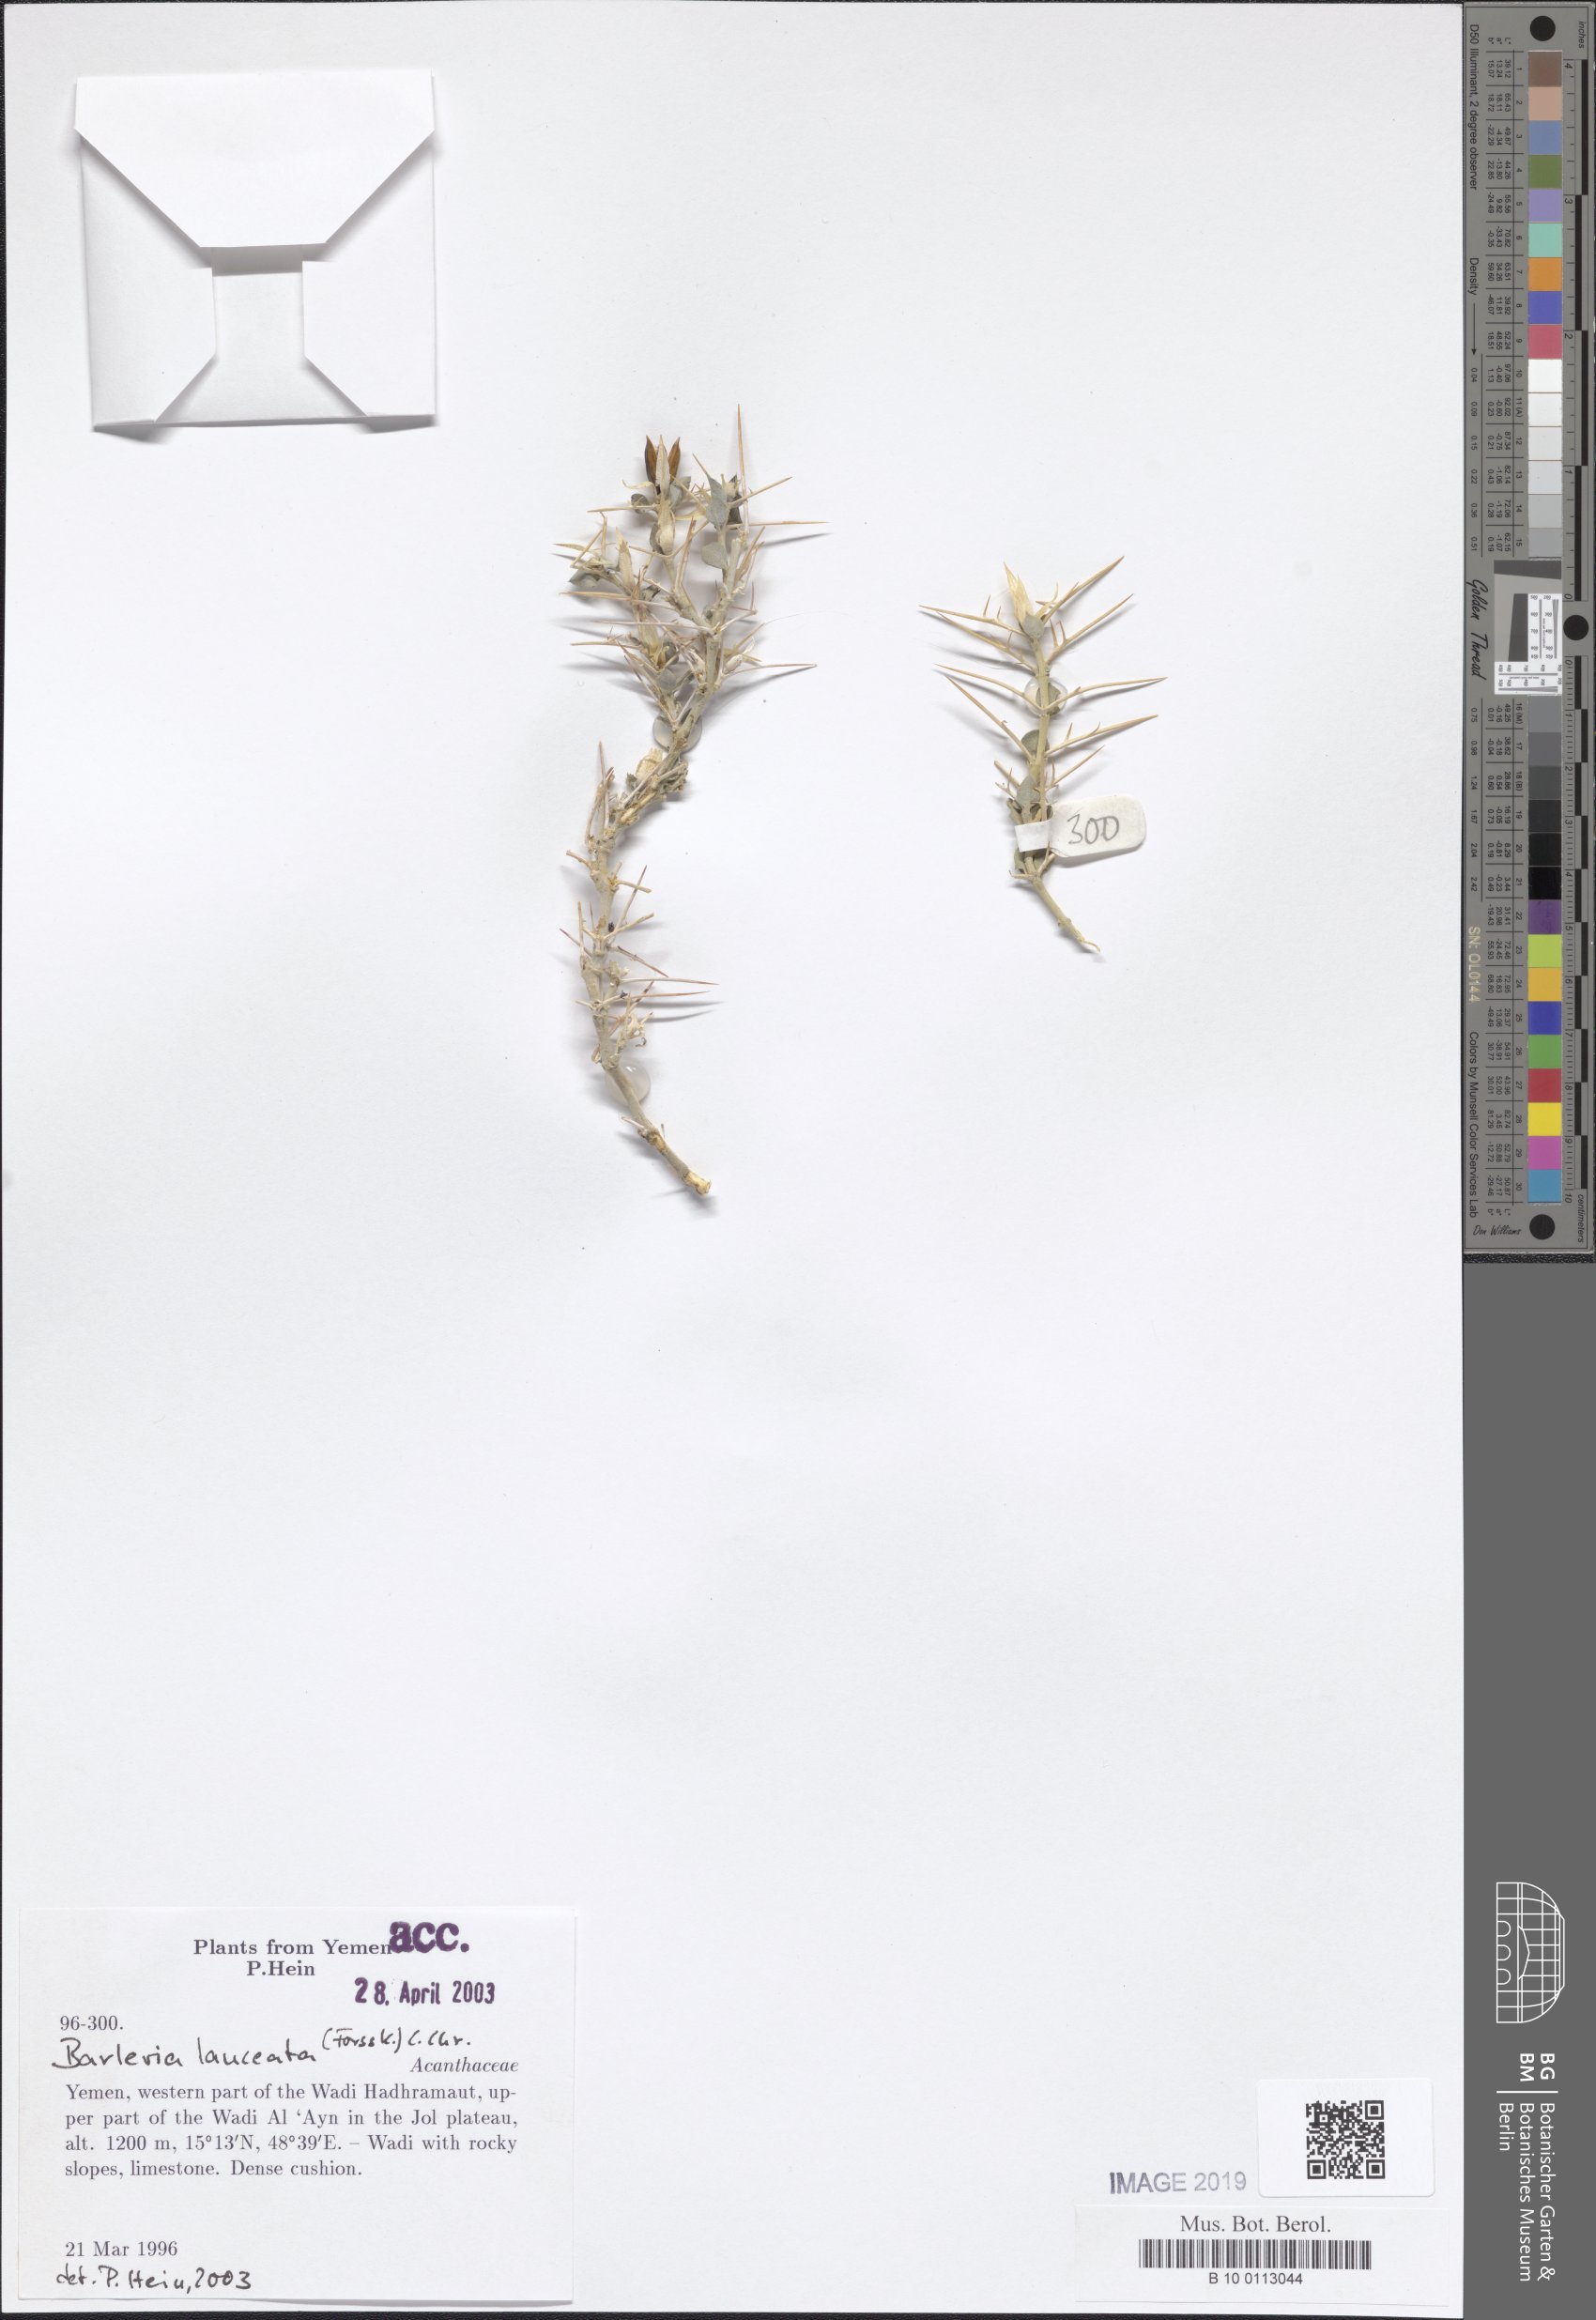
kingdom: Plantae
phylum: Tracheophyta
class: Magnoliopsida
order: Lamiales
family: Acanthaceae
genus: Barleria
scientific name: Barleria lanceata
